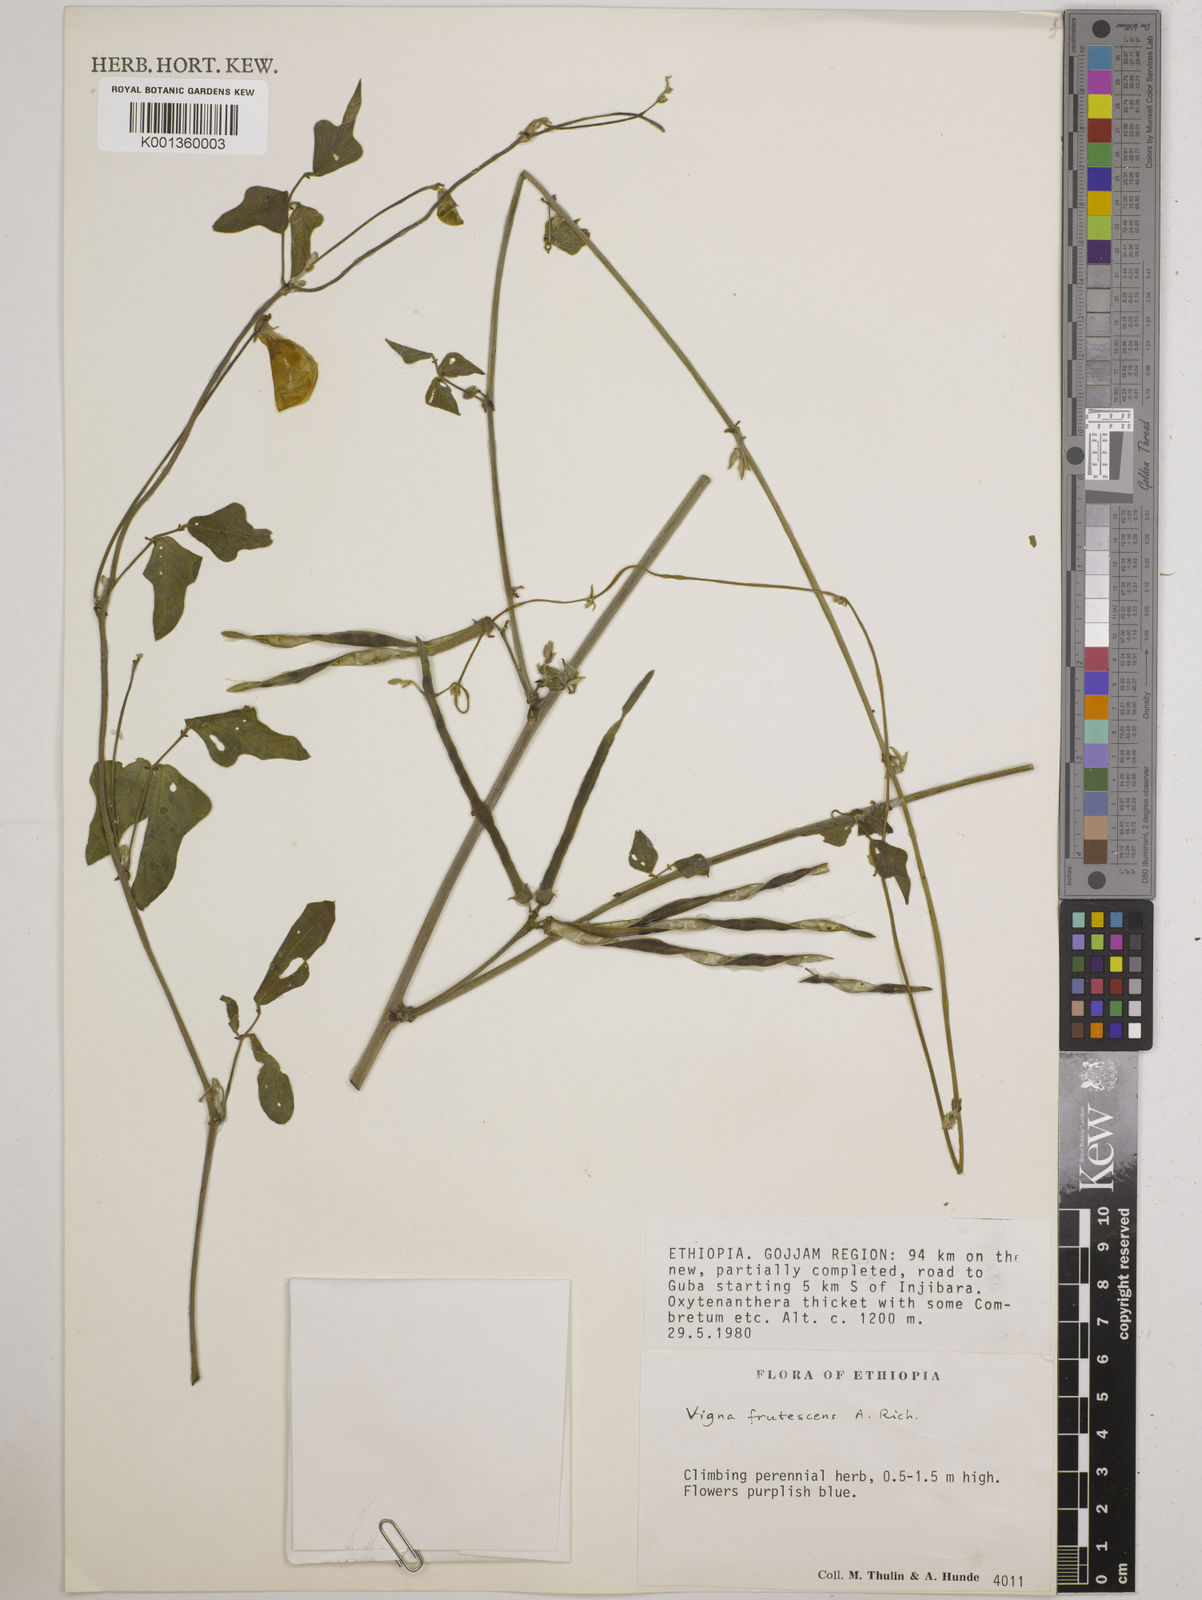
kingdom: Plantae
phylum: Tracheophyta
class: Magnoliopsida
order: Fabales
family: Fabaceae
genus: Vigna
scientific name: Vigna frutescens
